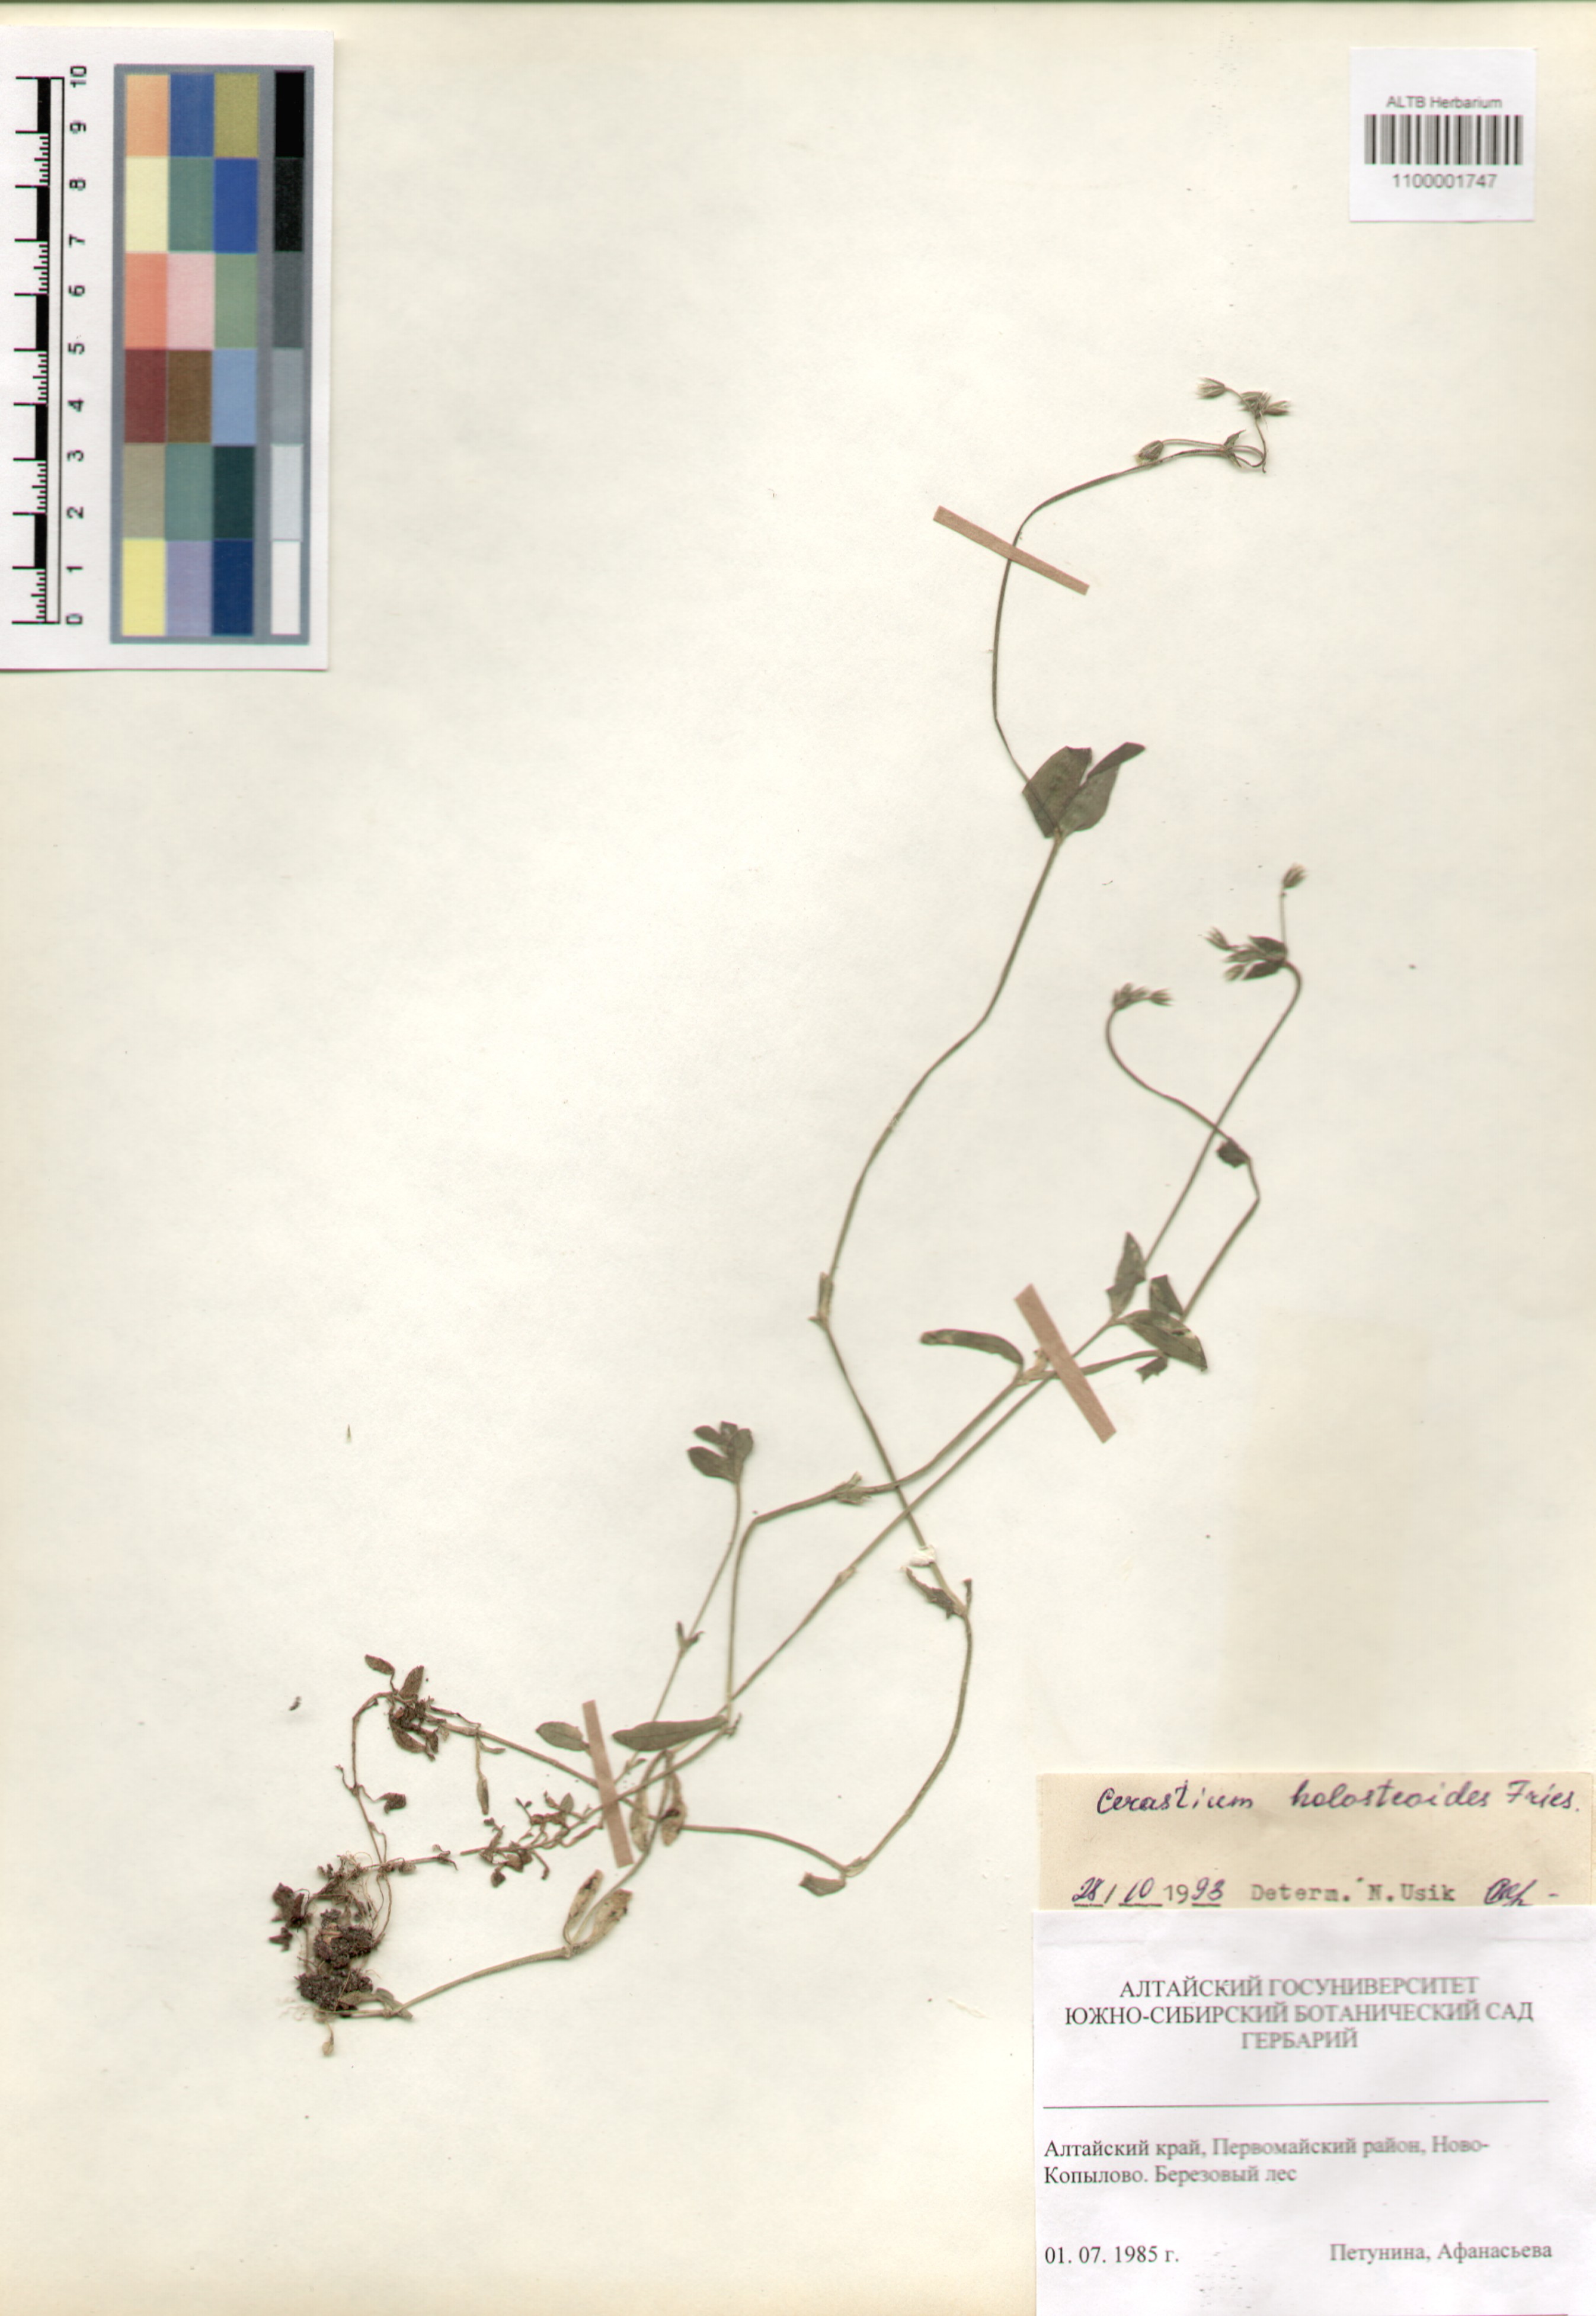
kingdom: Plantae
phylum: Tracheophyta
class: Magnoliopsida
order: Caryophyllales
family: Caryophyllaceae
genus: Cerastium
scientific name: Cerastium holosteoides
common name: Big chickweed
